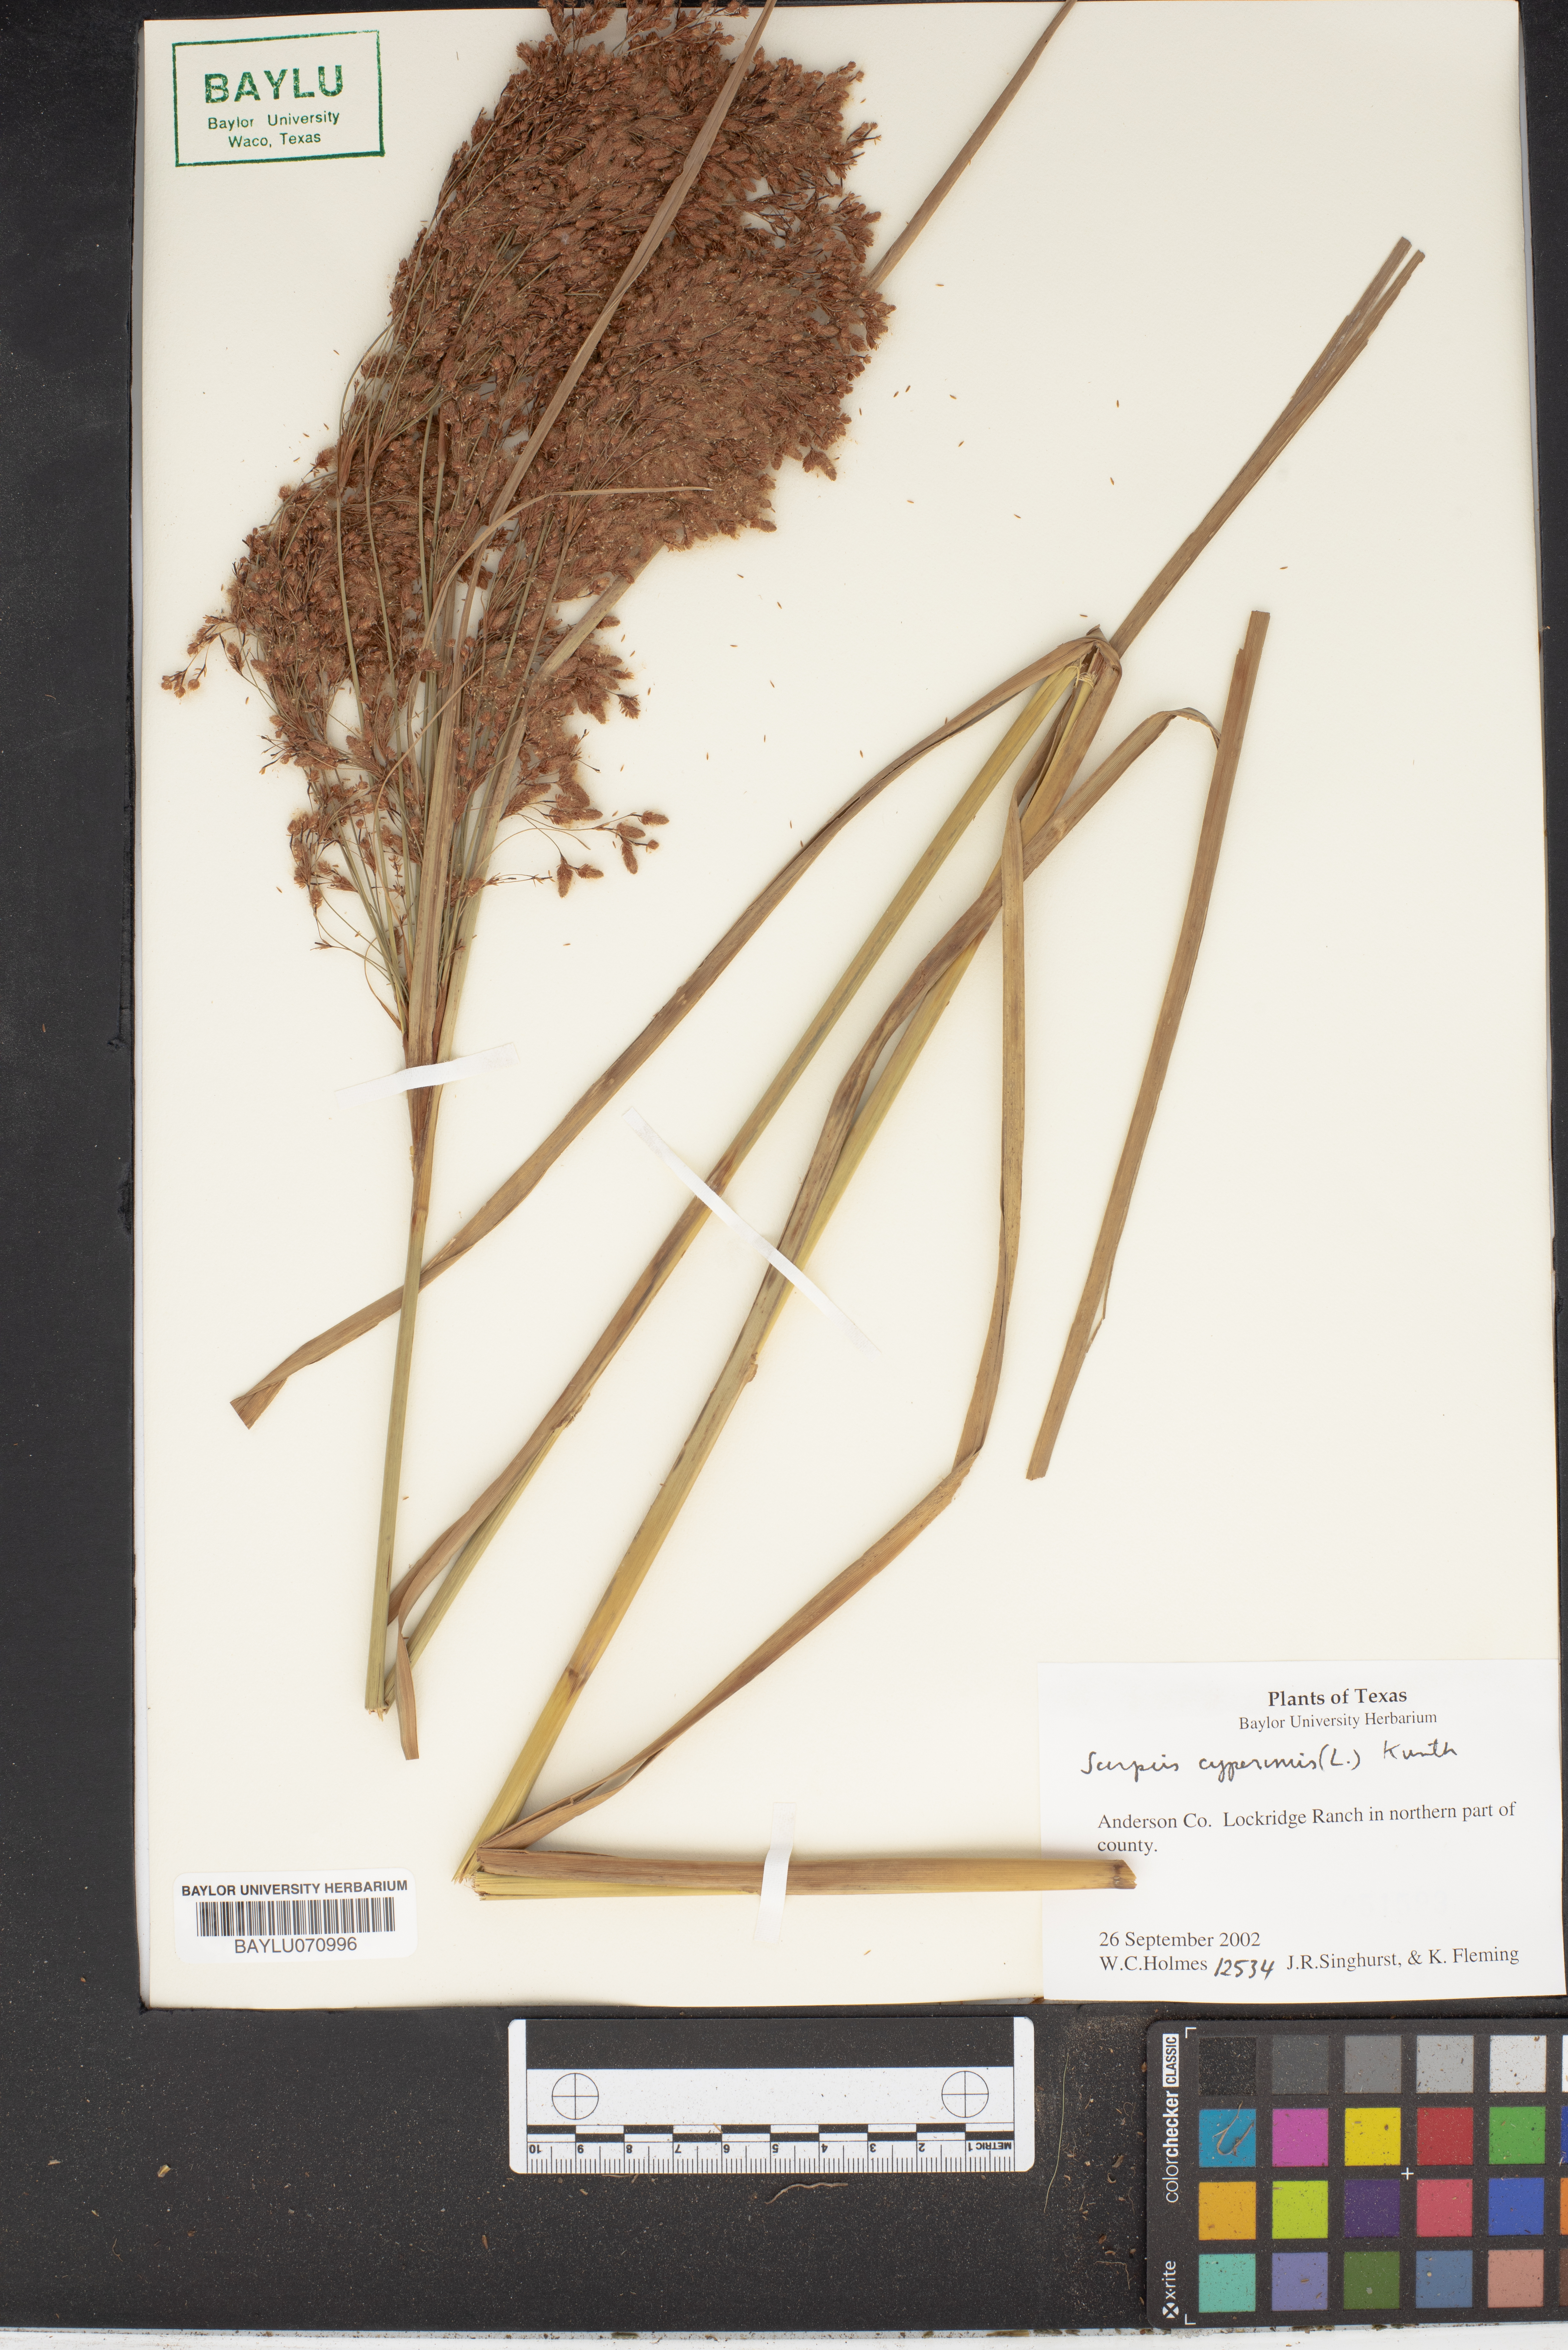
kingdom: Plantae
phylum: Tracheophyta
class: Liliopsida
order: Poales
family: Cyperaceae
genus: Scirpus
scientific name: Scirpus cyperinus
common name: Black-sheathed bulrush
